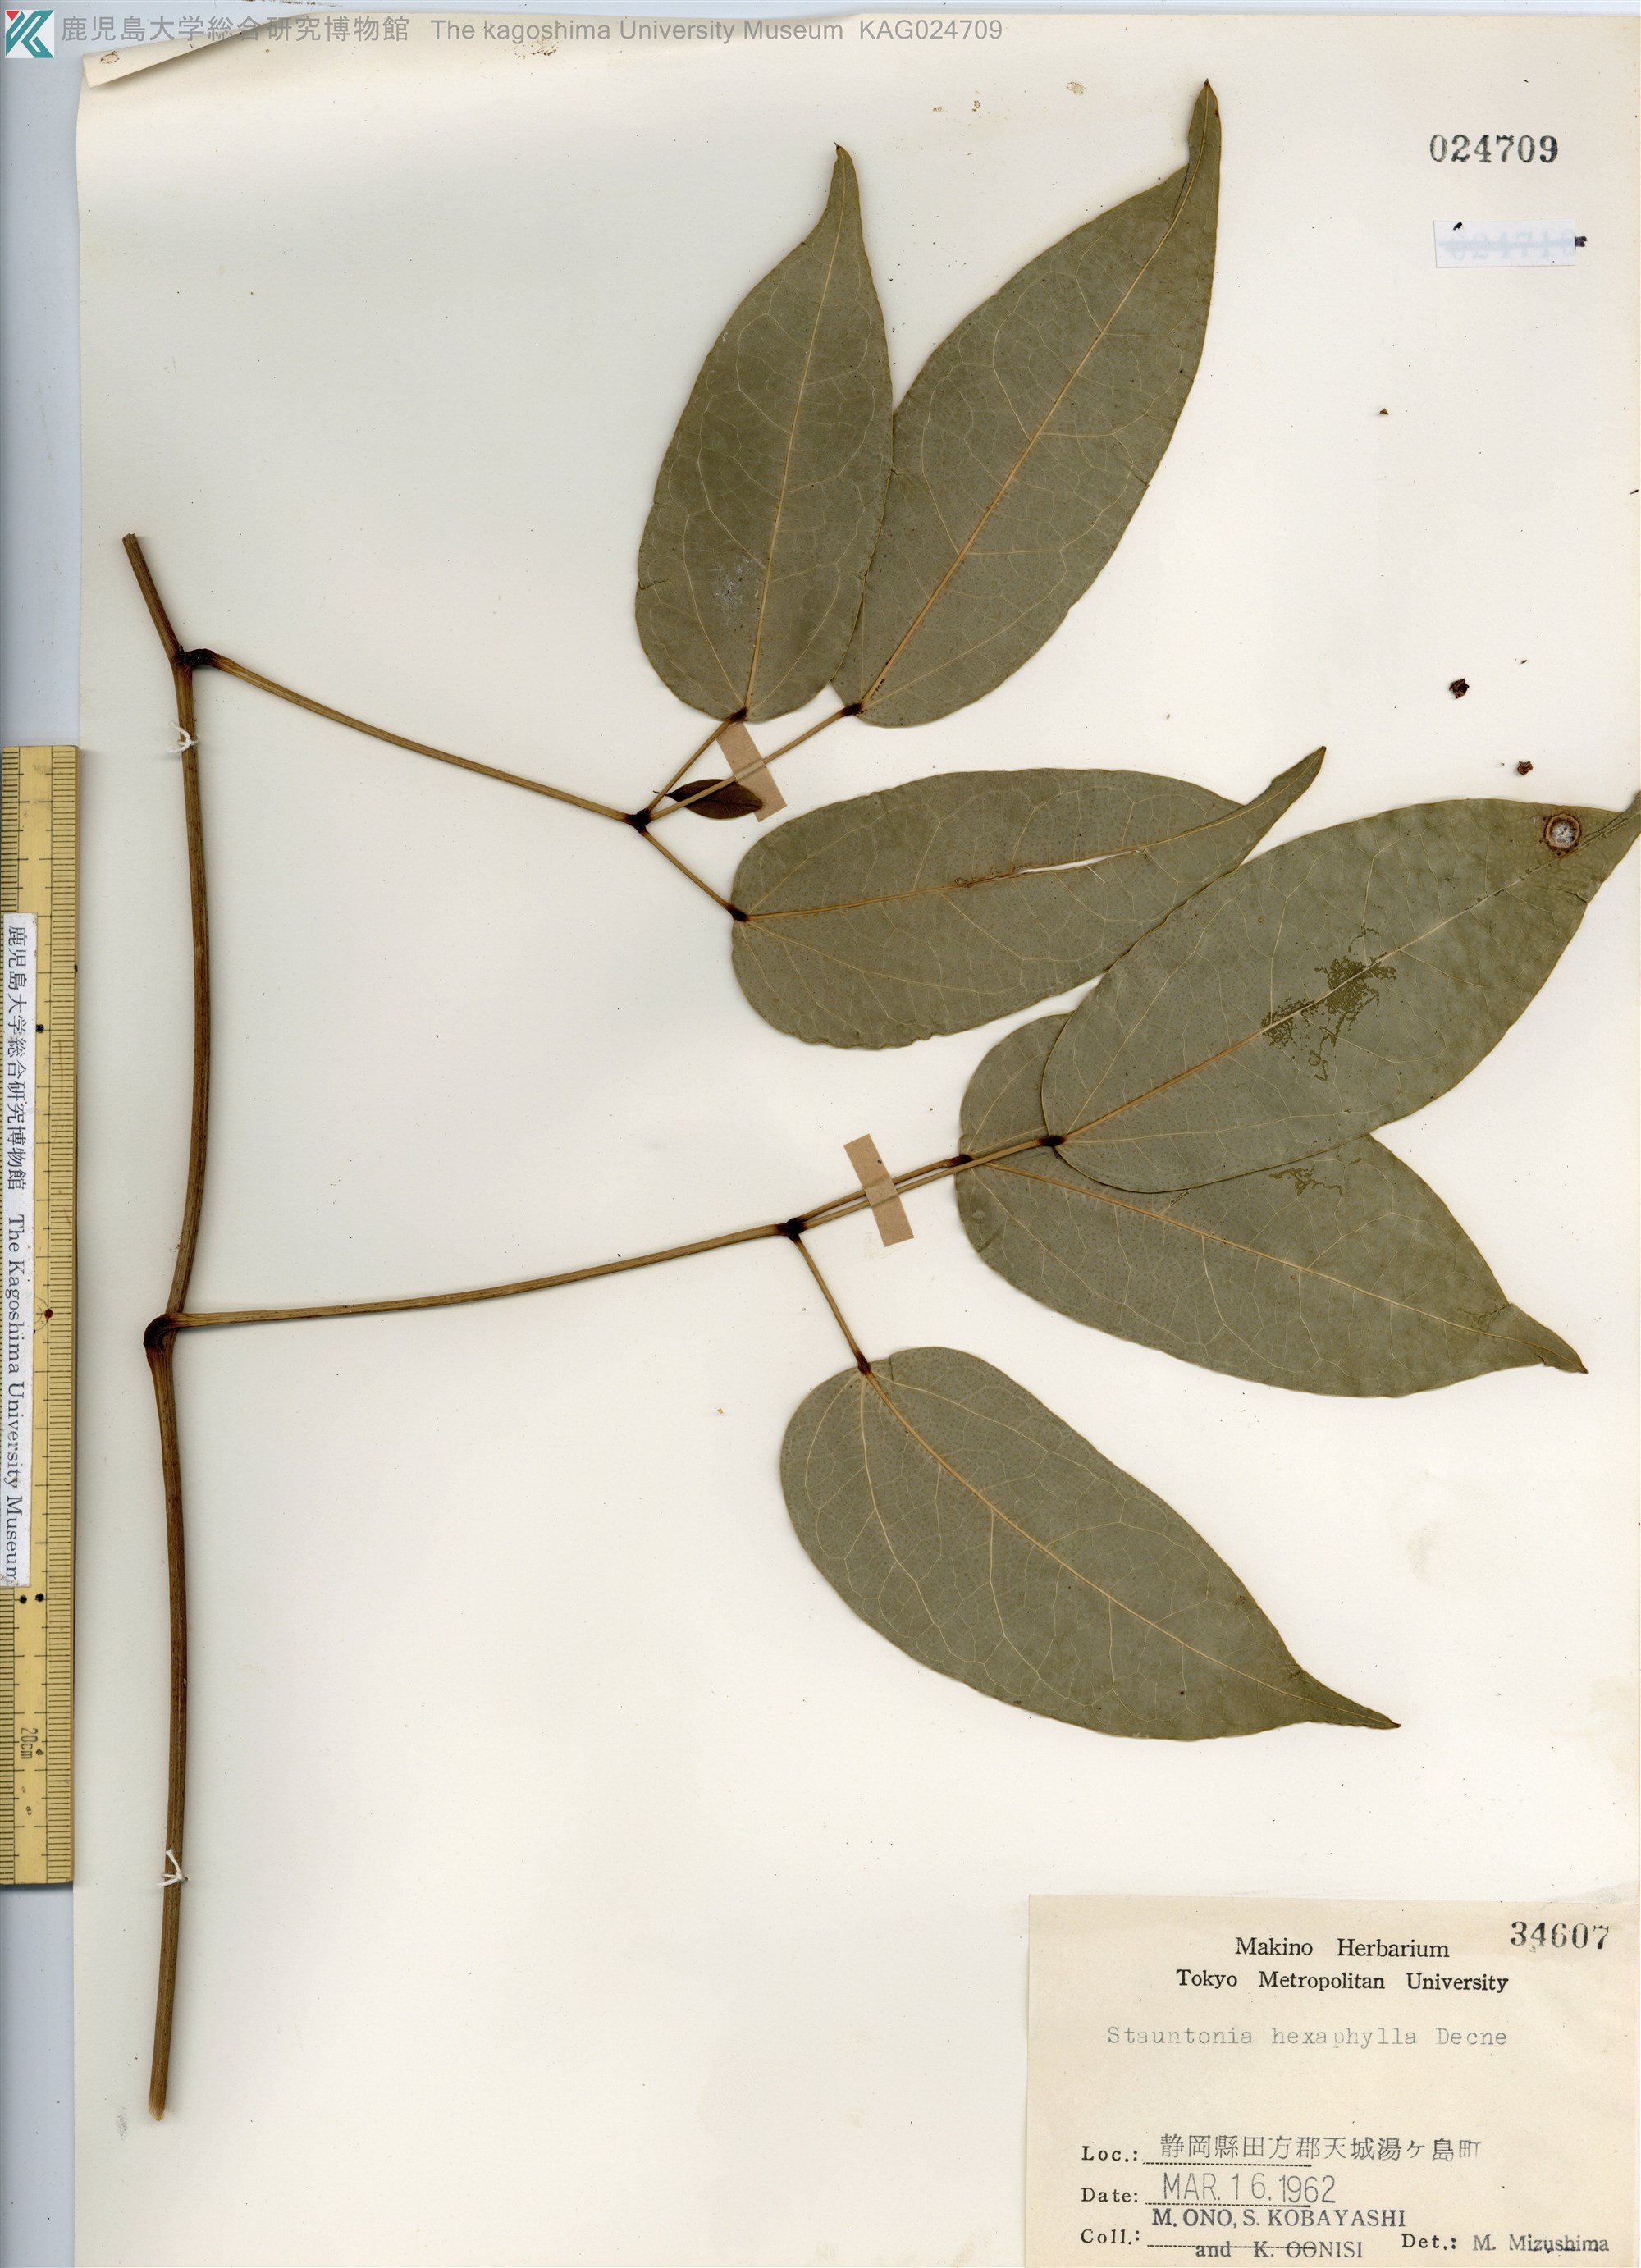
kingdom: Plantae
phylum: Tracheophyta
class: Magnoliopsida
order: Ranunculales
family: Lardizabalaceae
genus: Stauntonia
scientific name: Stauntonia hexaphylla
